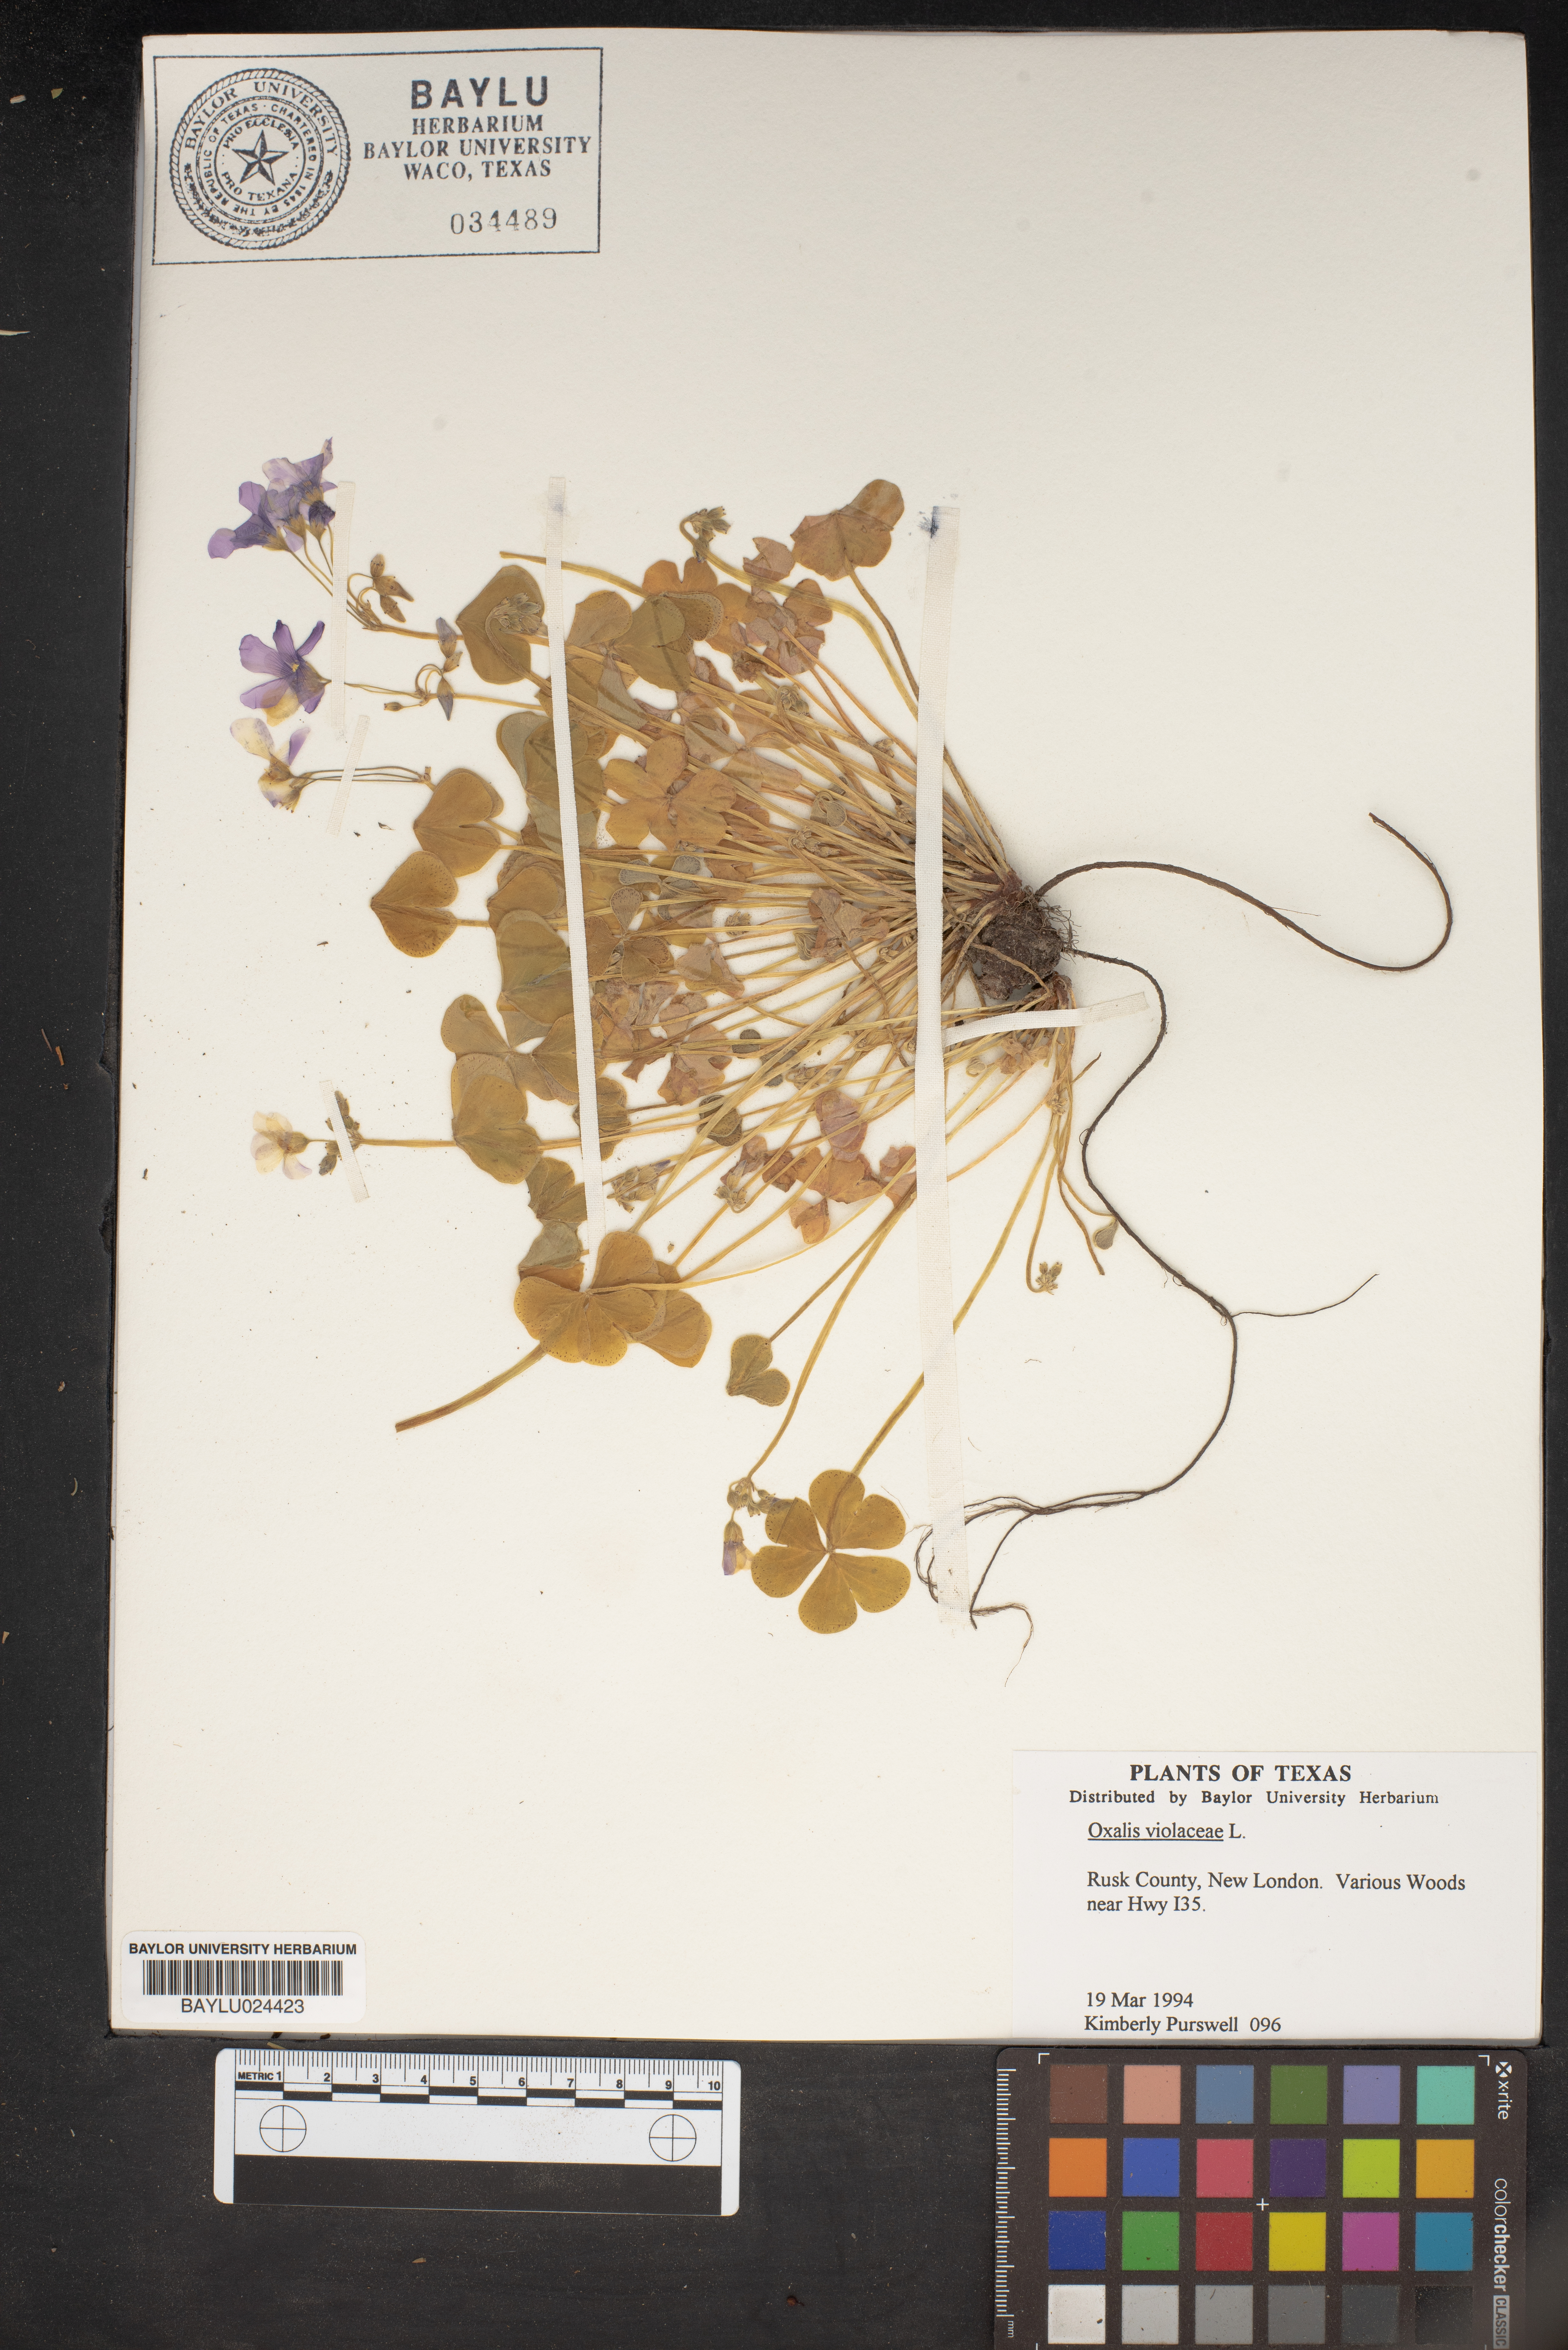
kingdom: Plantae
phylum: Tracheophyta
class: Magnoliopsida
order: Oxalidales
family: Oxalidaceae
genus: Oxalis
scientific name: Oxalis violacea
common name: Violet wood-sorrel
